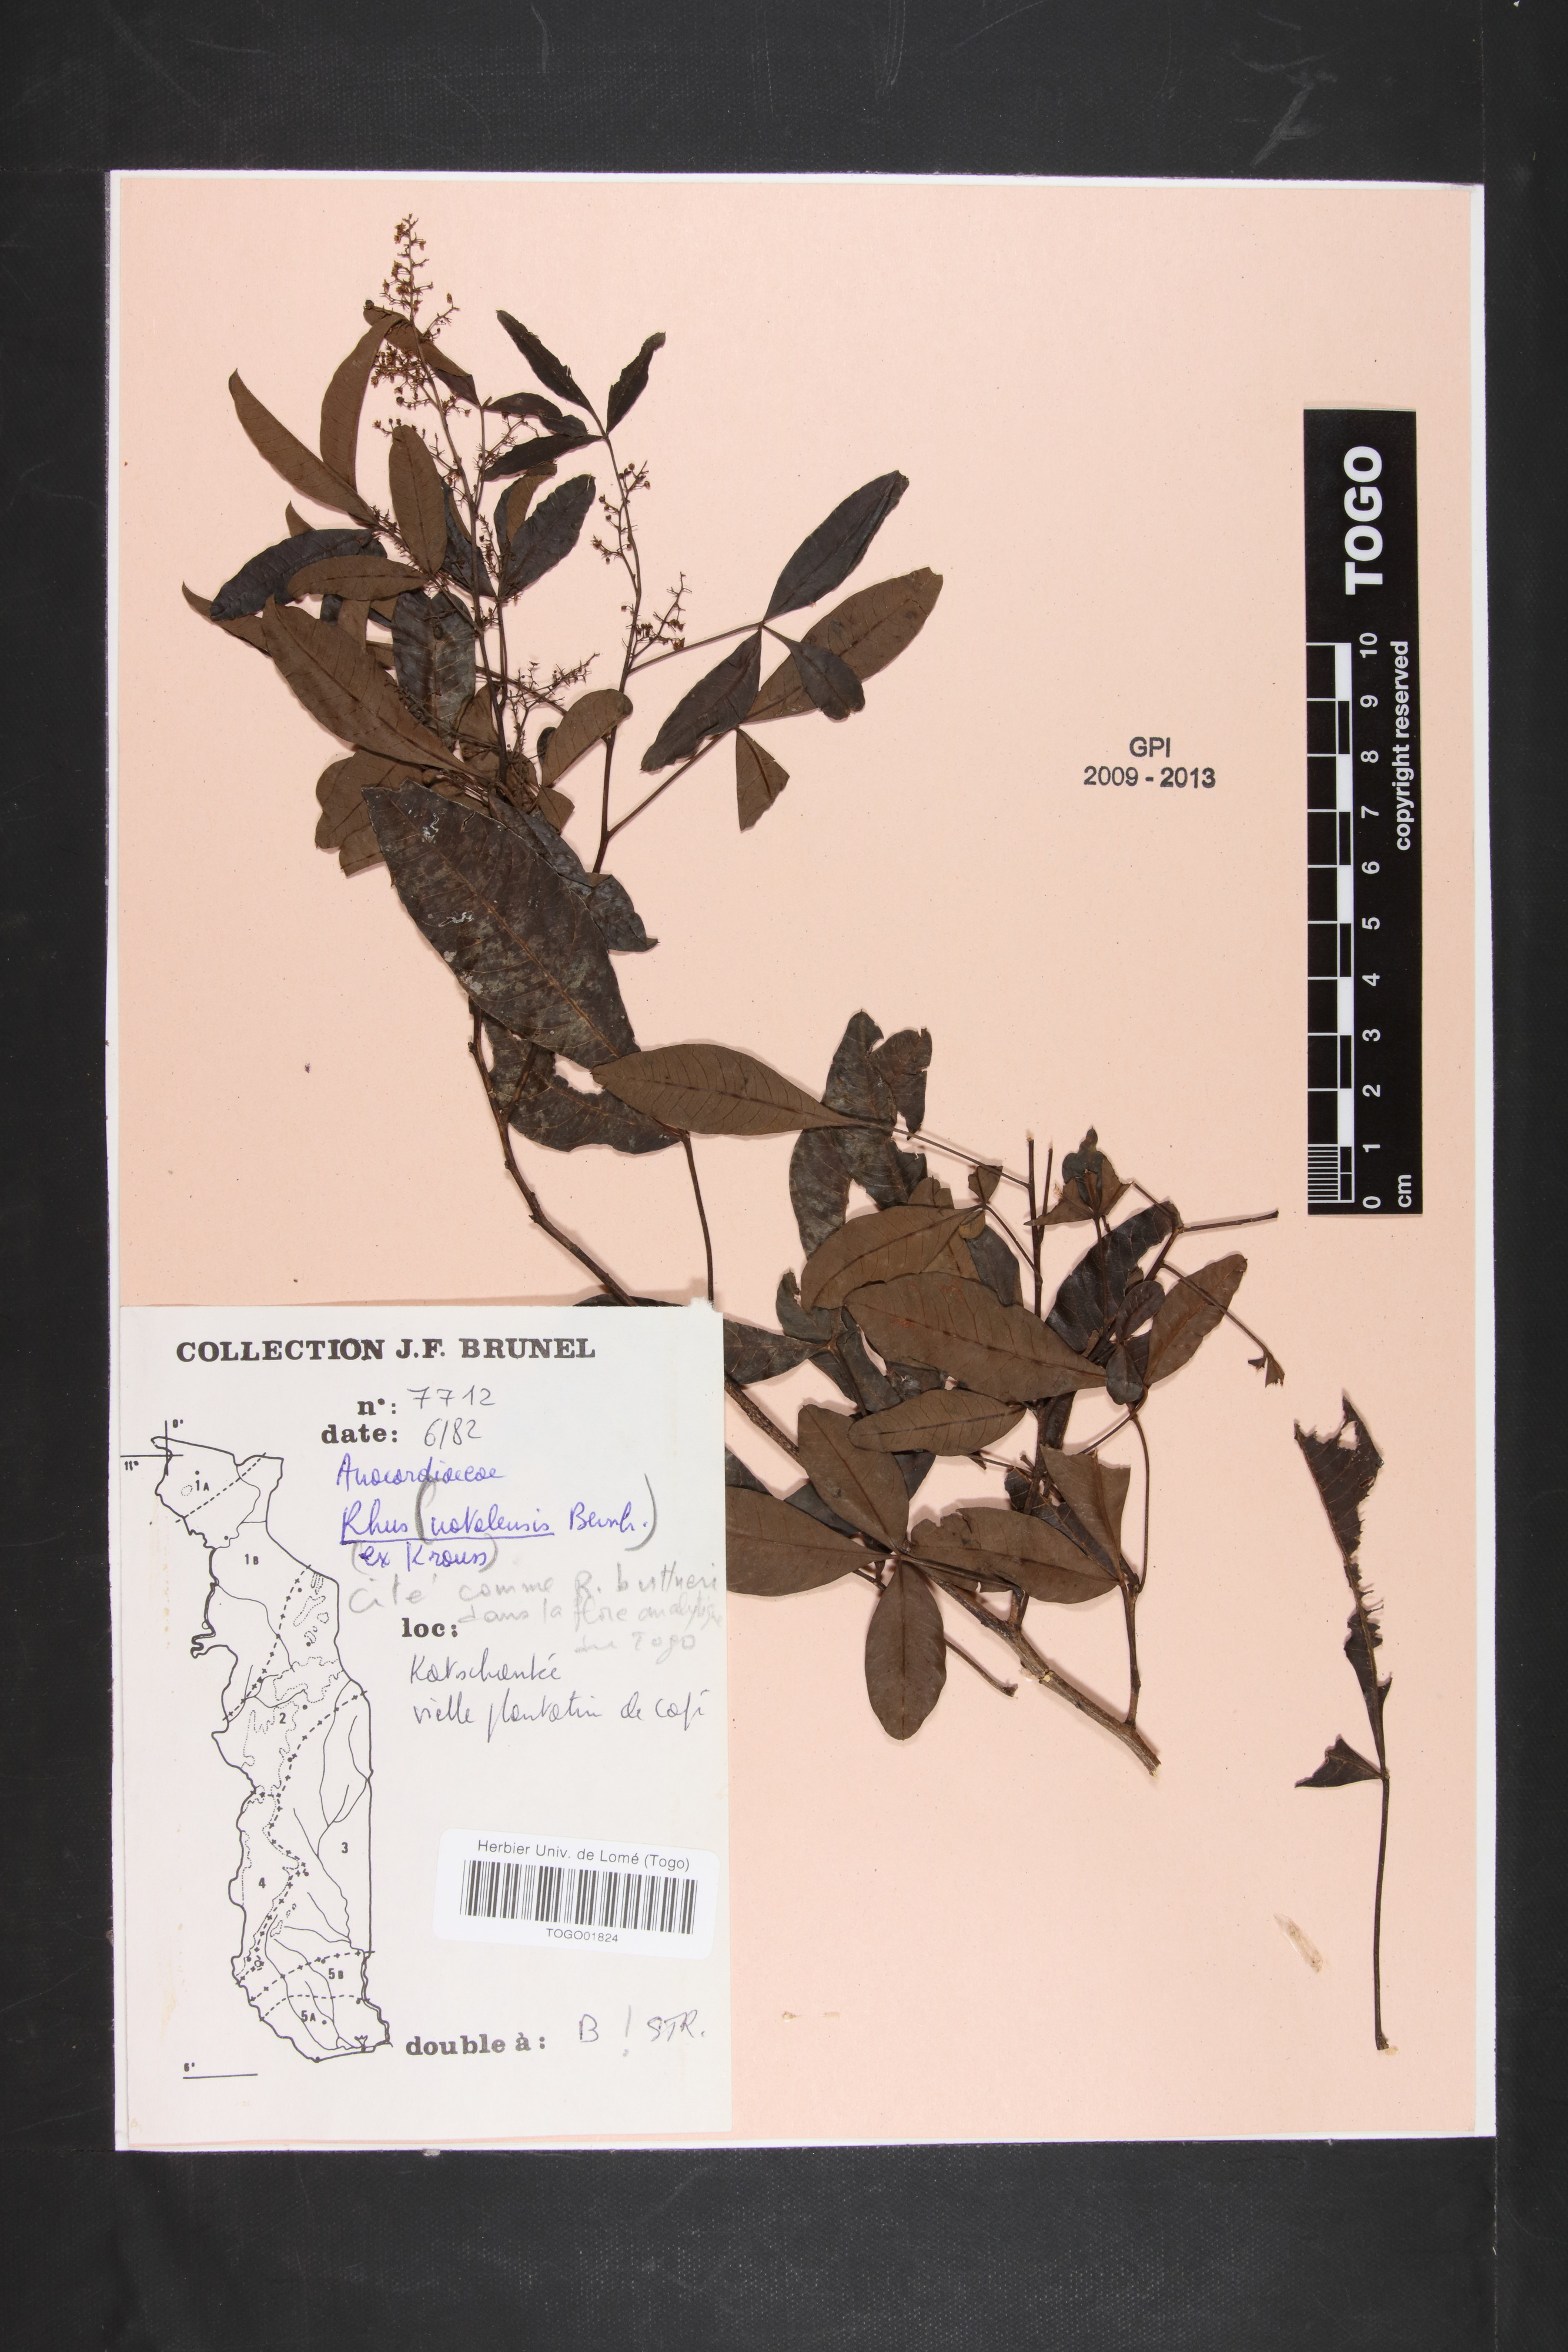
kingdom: Plantae
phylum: Tracheophyta
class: Magnoliopsida
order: Sapindales
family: Anacardiaceae
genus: Searsia
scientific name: Searsia natalensis
